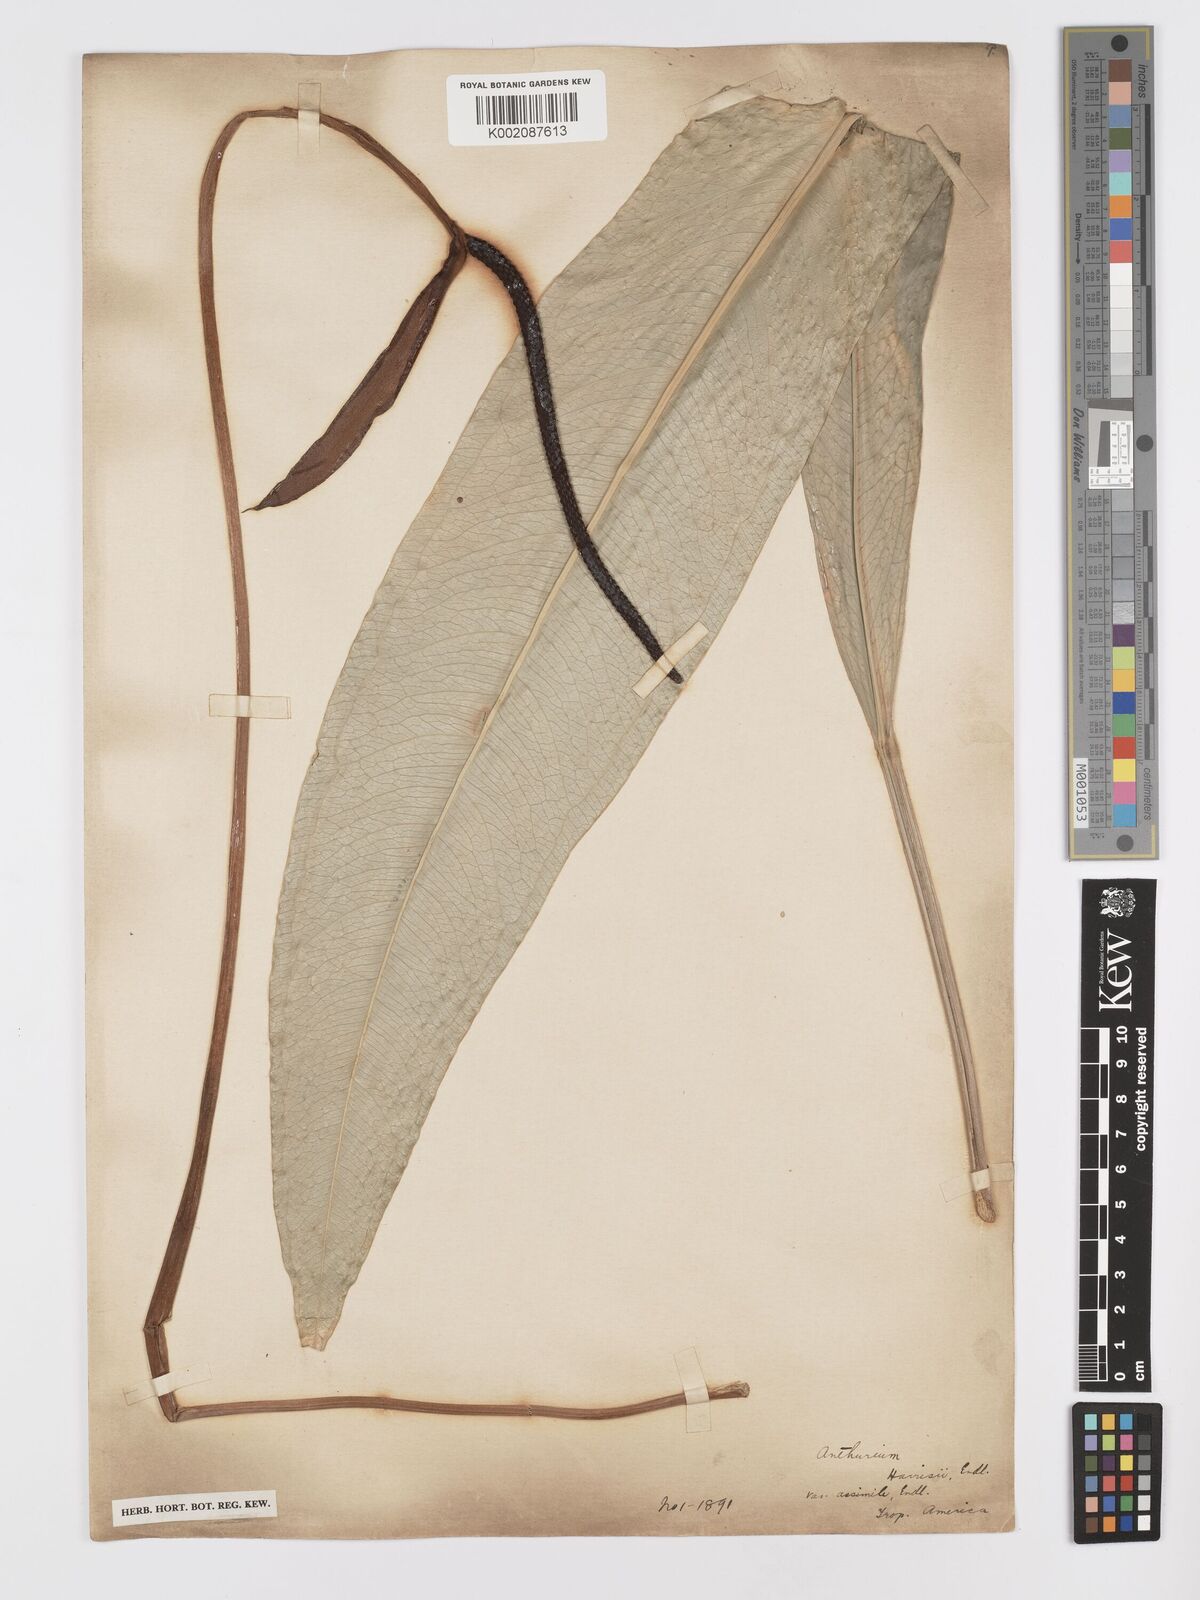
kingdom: Plantae
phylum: Tracheophyta
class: Liliopsida
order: Alismatales
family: Araceae
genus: Anthurium
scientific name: Anthurium harrisii
